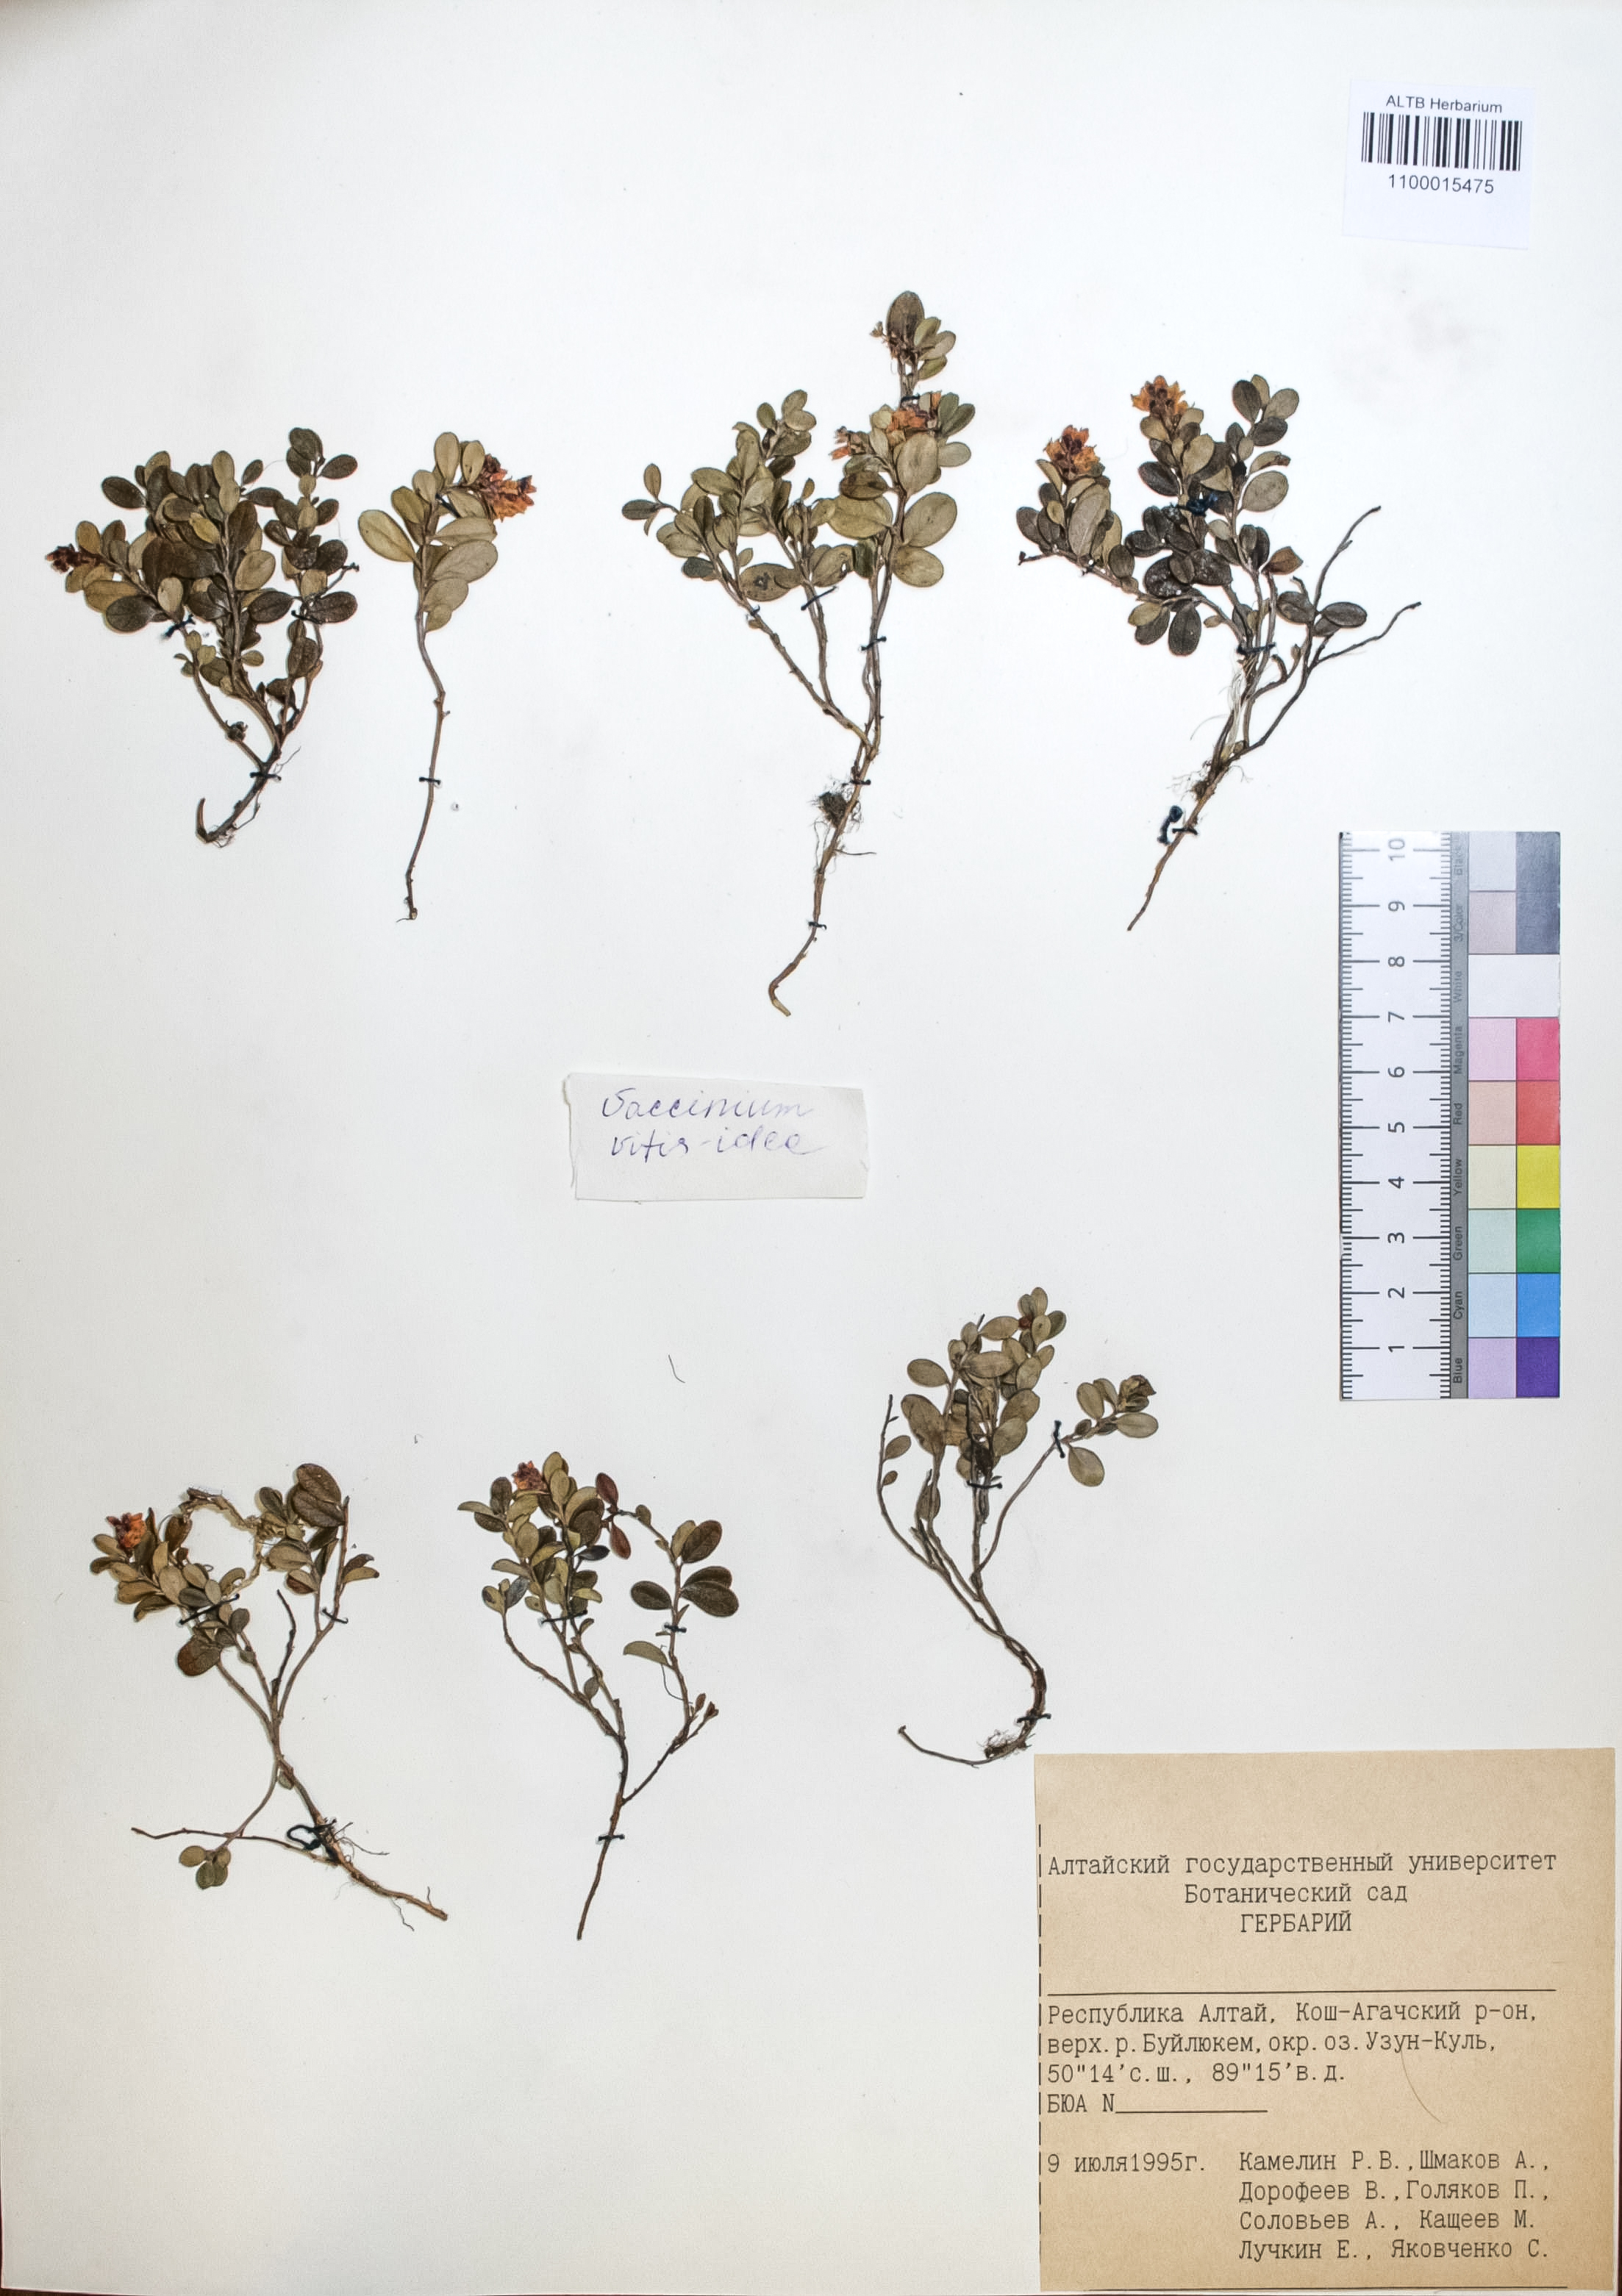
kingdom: Plantae
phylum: Tracheophyta
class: Magnoliopsida
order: Ericales
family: Ericaceae
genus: Vaccinium
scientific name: Vaccinium vitis-idaea
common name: Cowberry
